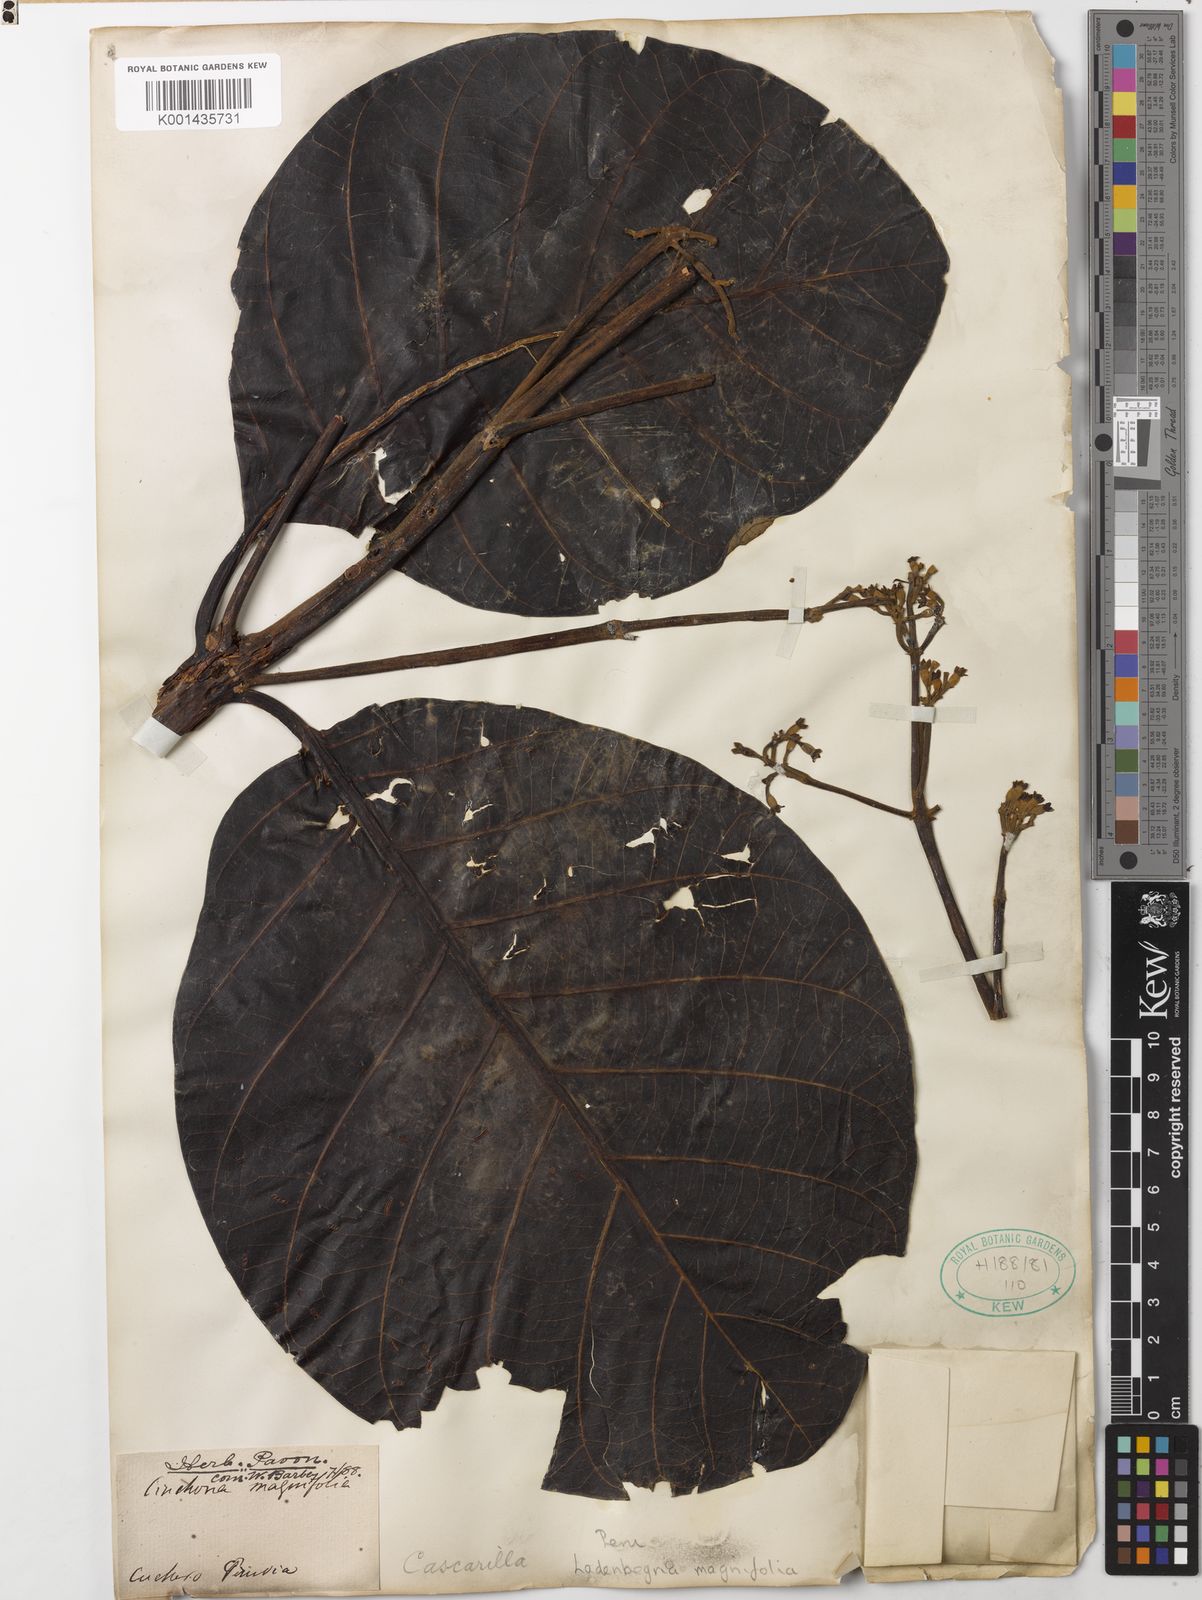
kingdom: Plantae
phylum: Tracheophyta
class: Magnoliopsida
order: Gentianales
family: Rubiaceae
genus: Ladenbergia
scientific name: Ladenbergia oblongifolia
